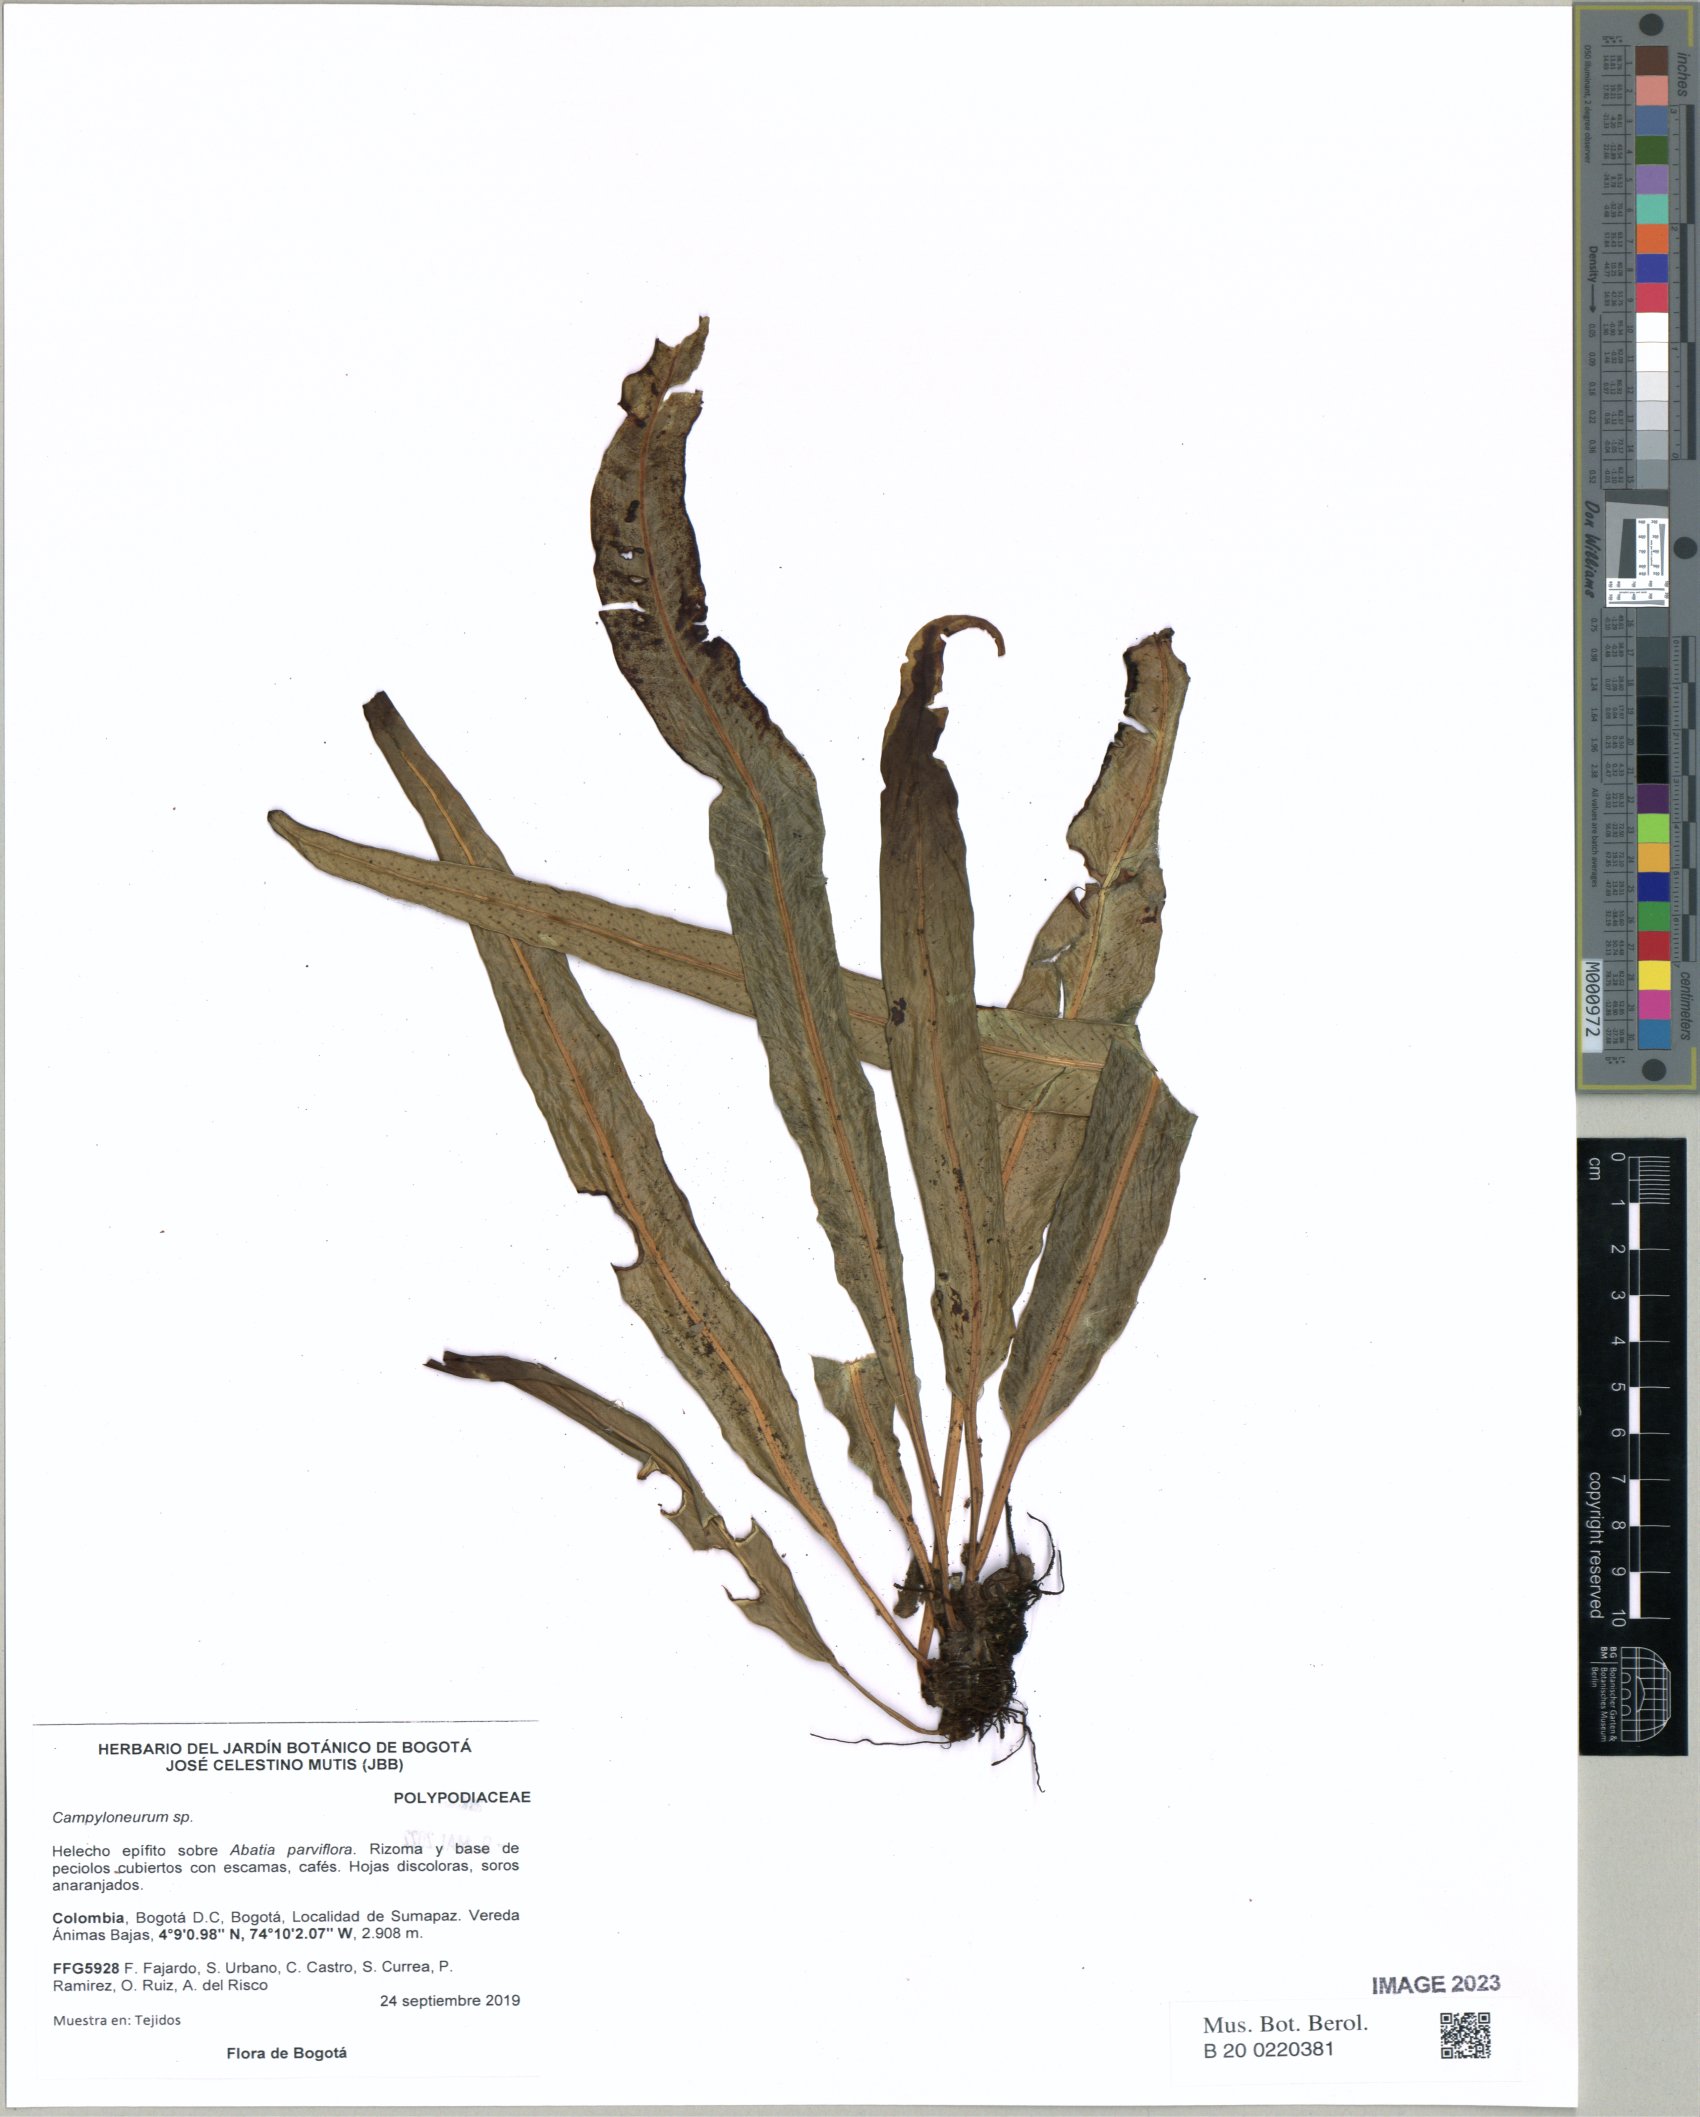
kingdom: Plantae
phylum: Tracheophyta
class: Polypodiopsida
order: Polypodiales
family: Polypodiaceae
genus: Campyloneurum
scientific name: Campyloneurum
